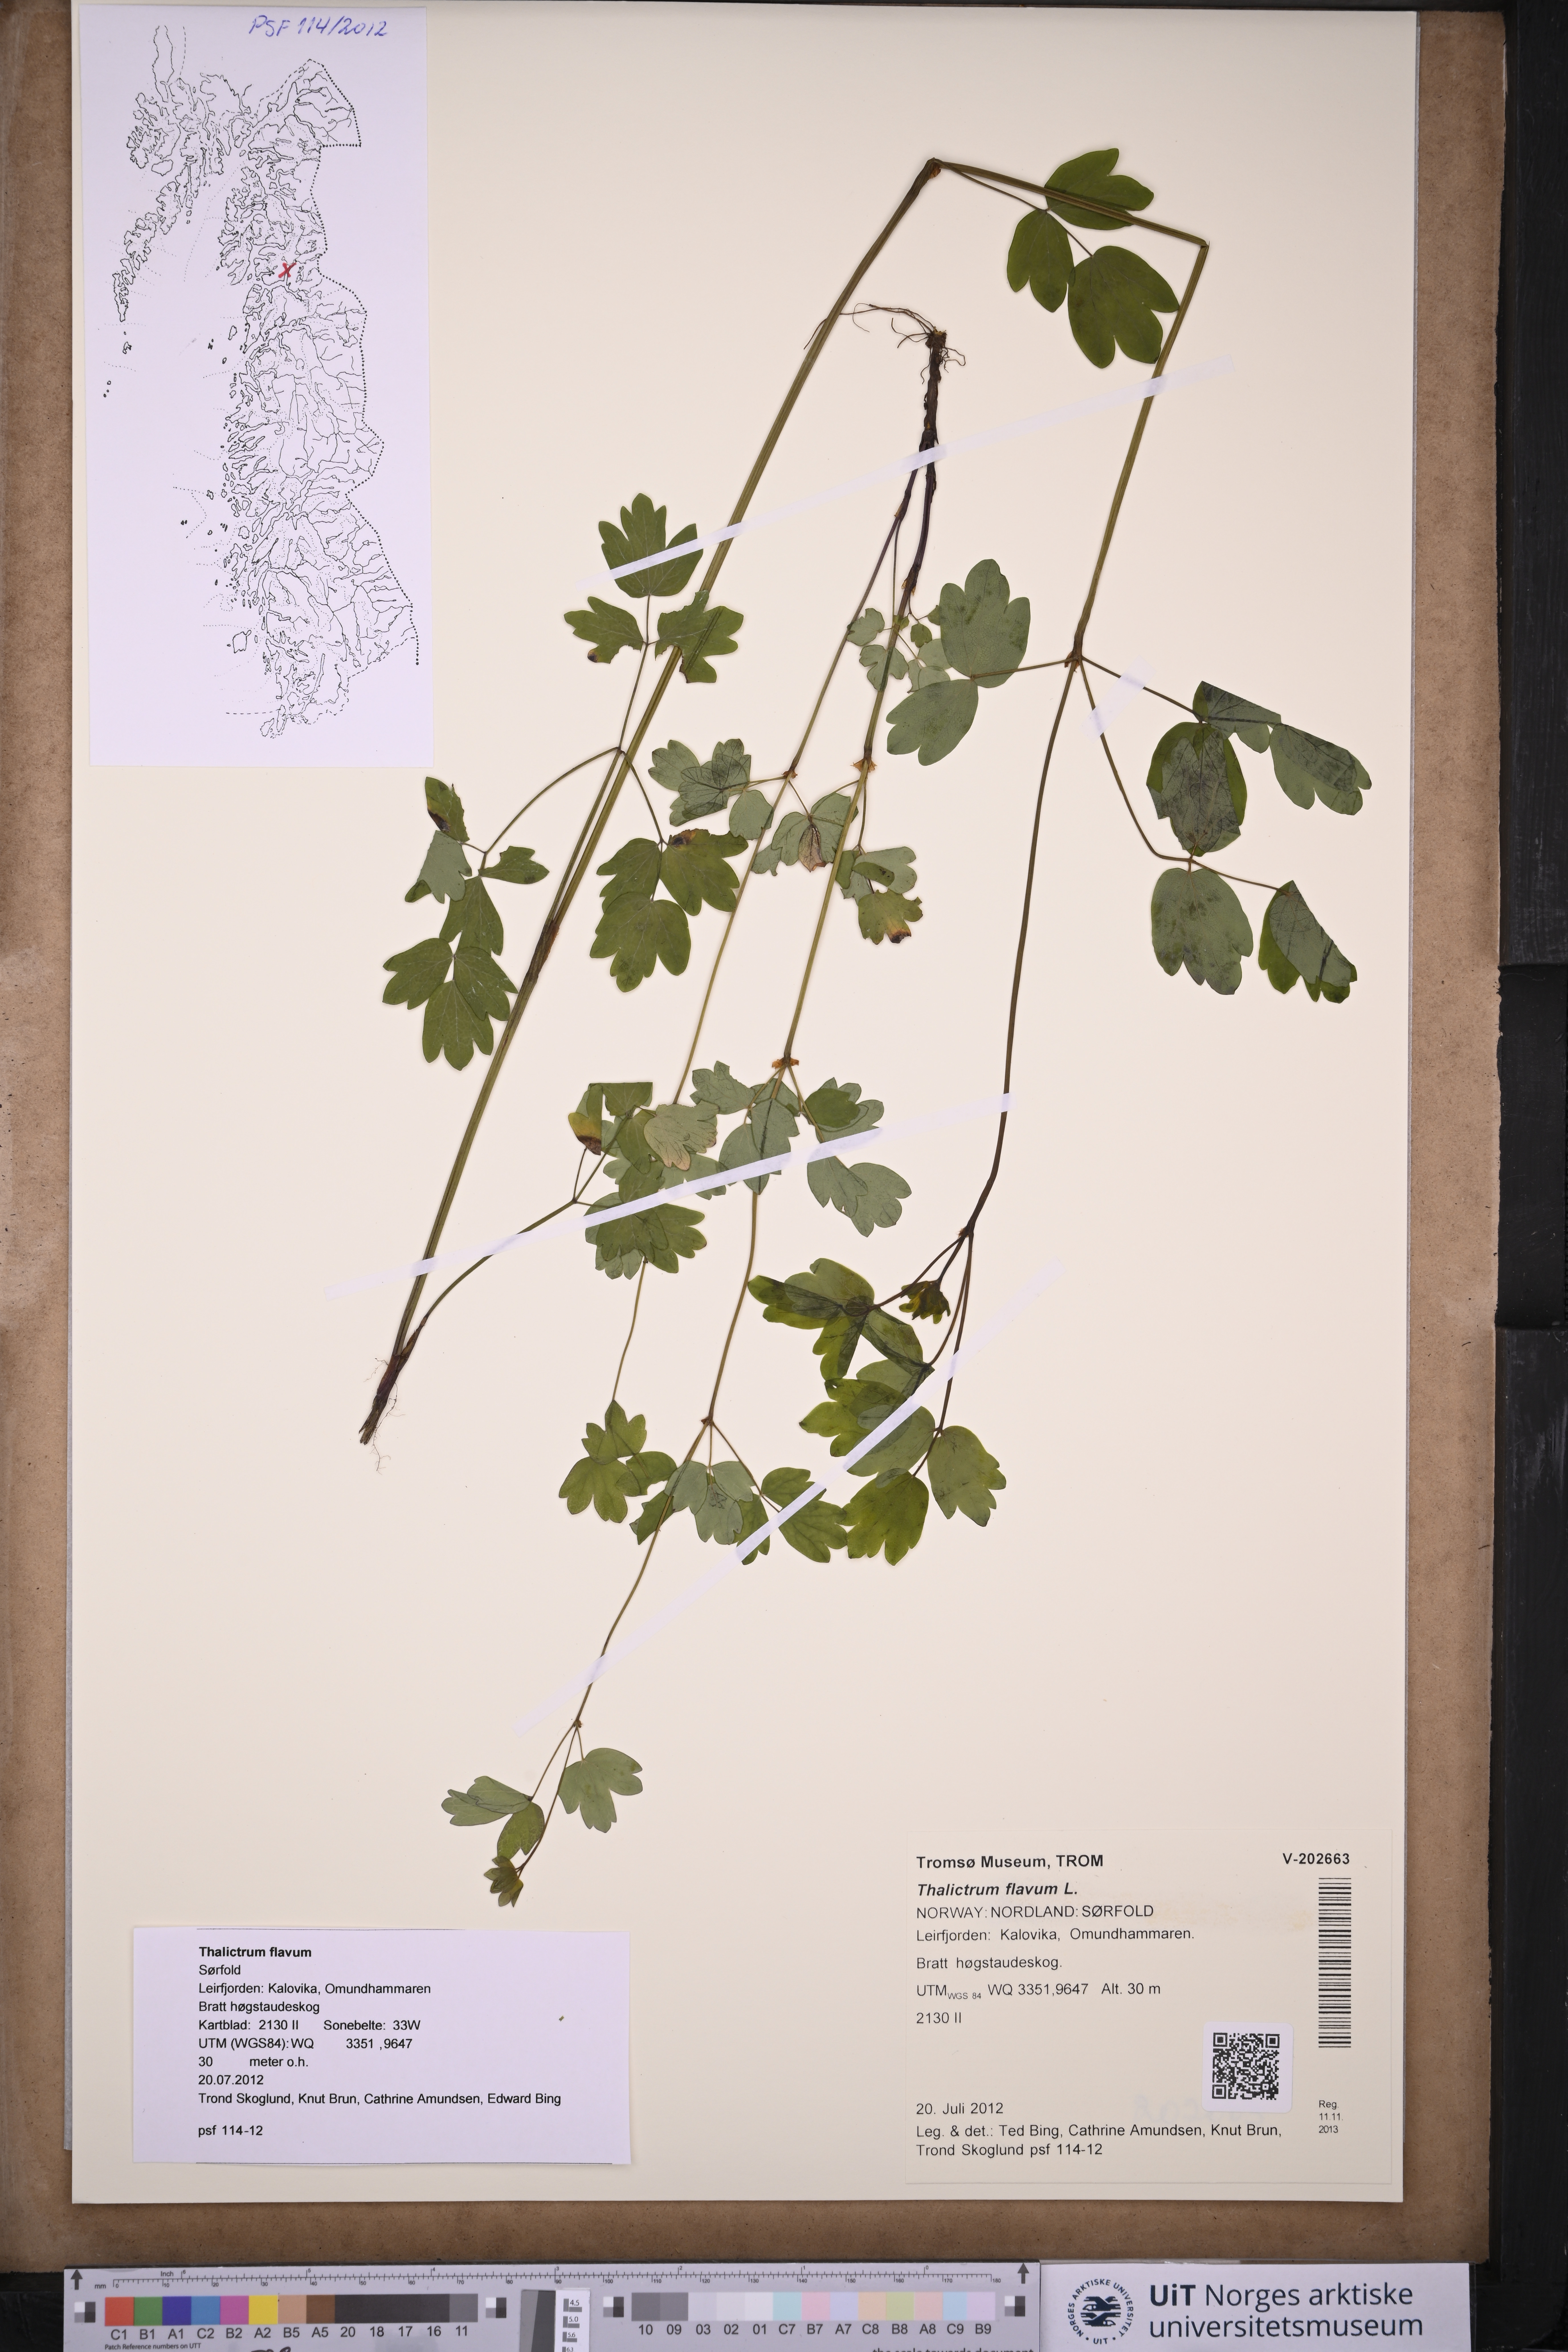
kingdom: Plantae
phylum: Tracheophyta
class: Magnoliopsida
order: Ranunculales
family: Ranunculaceae
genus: Thalictrum
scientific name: Thalictrum flavum
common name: Common meadow-rue
